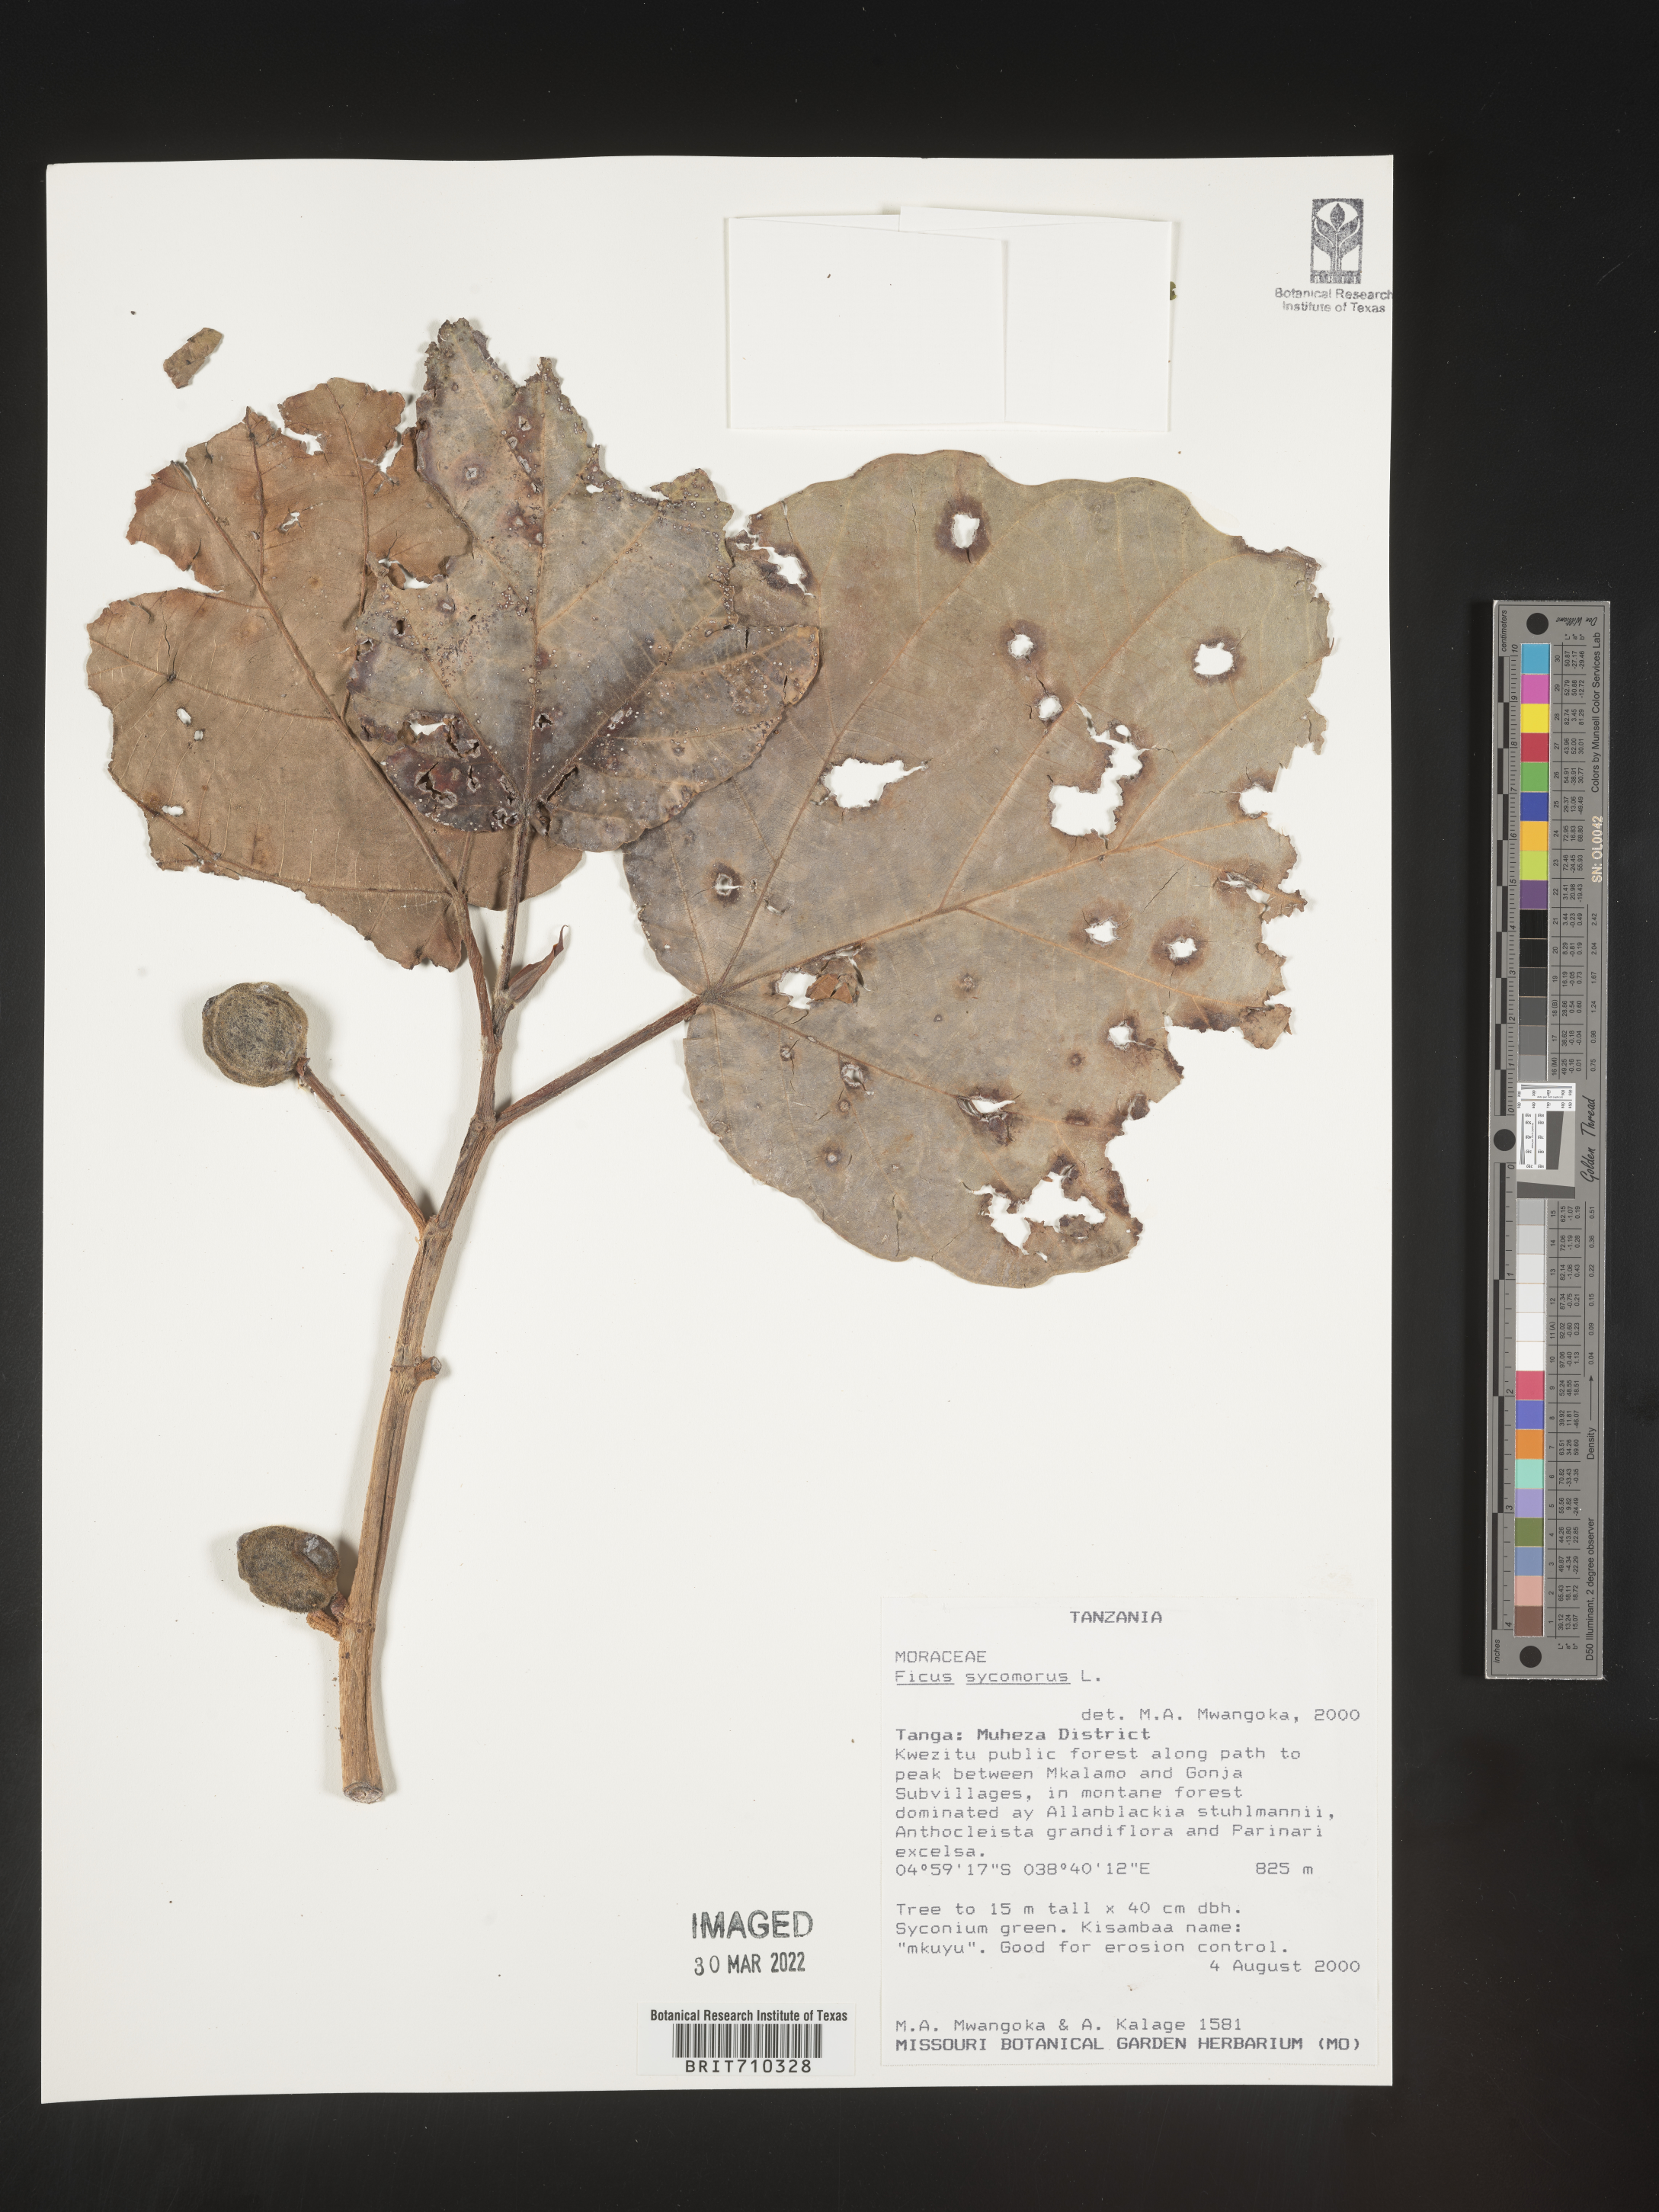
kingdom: Plantae
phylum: Tracheophyta
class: Magnoliopsida
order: Rosales
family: Moraceae
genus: Ficus
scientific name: Ficus
